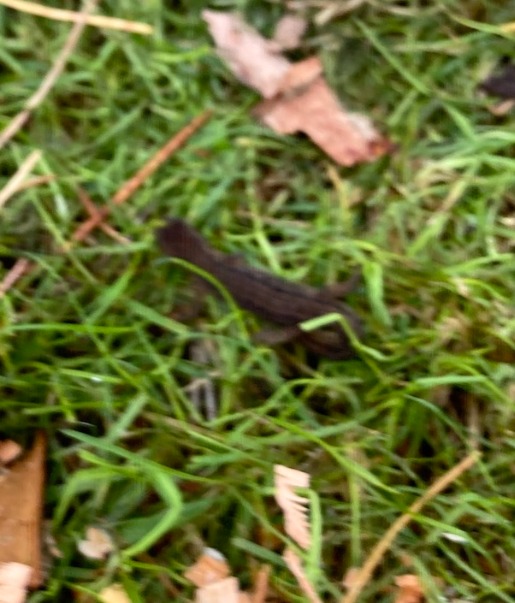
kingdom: Animalia
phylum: Chordata
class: Amphibia
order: Caudata
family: Salamandridae
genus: Lissotriton
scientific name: Lissotriton vulgaris
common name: Lille vandsalamander
